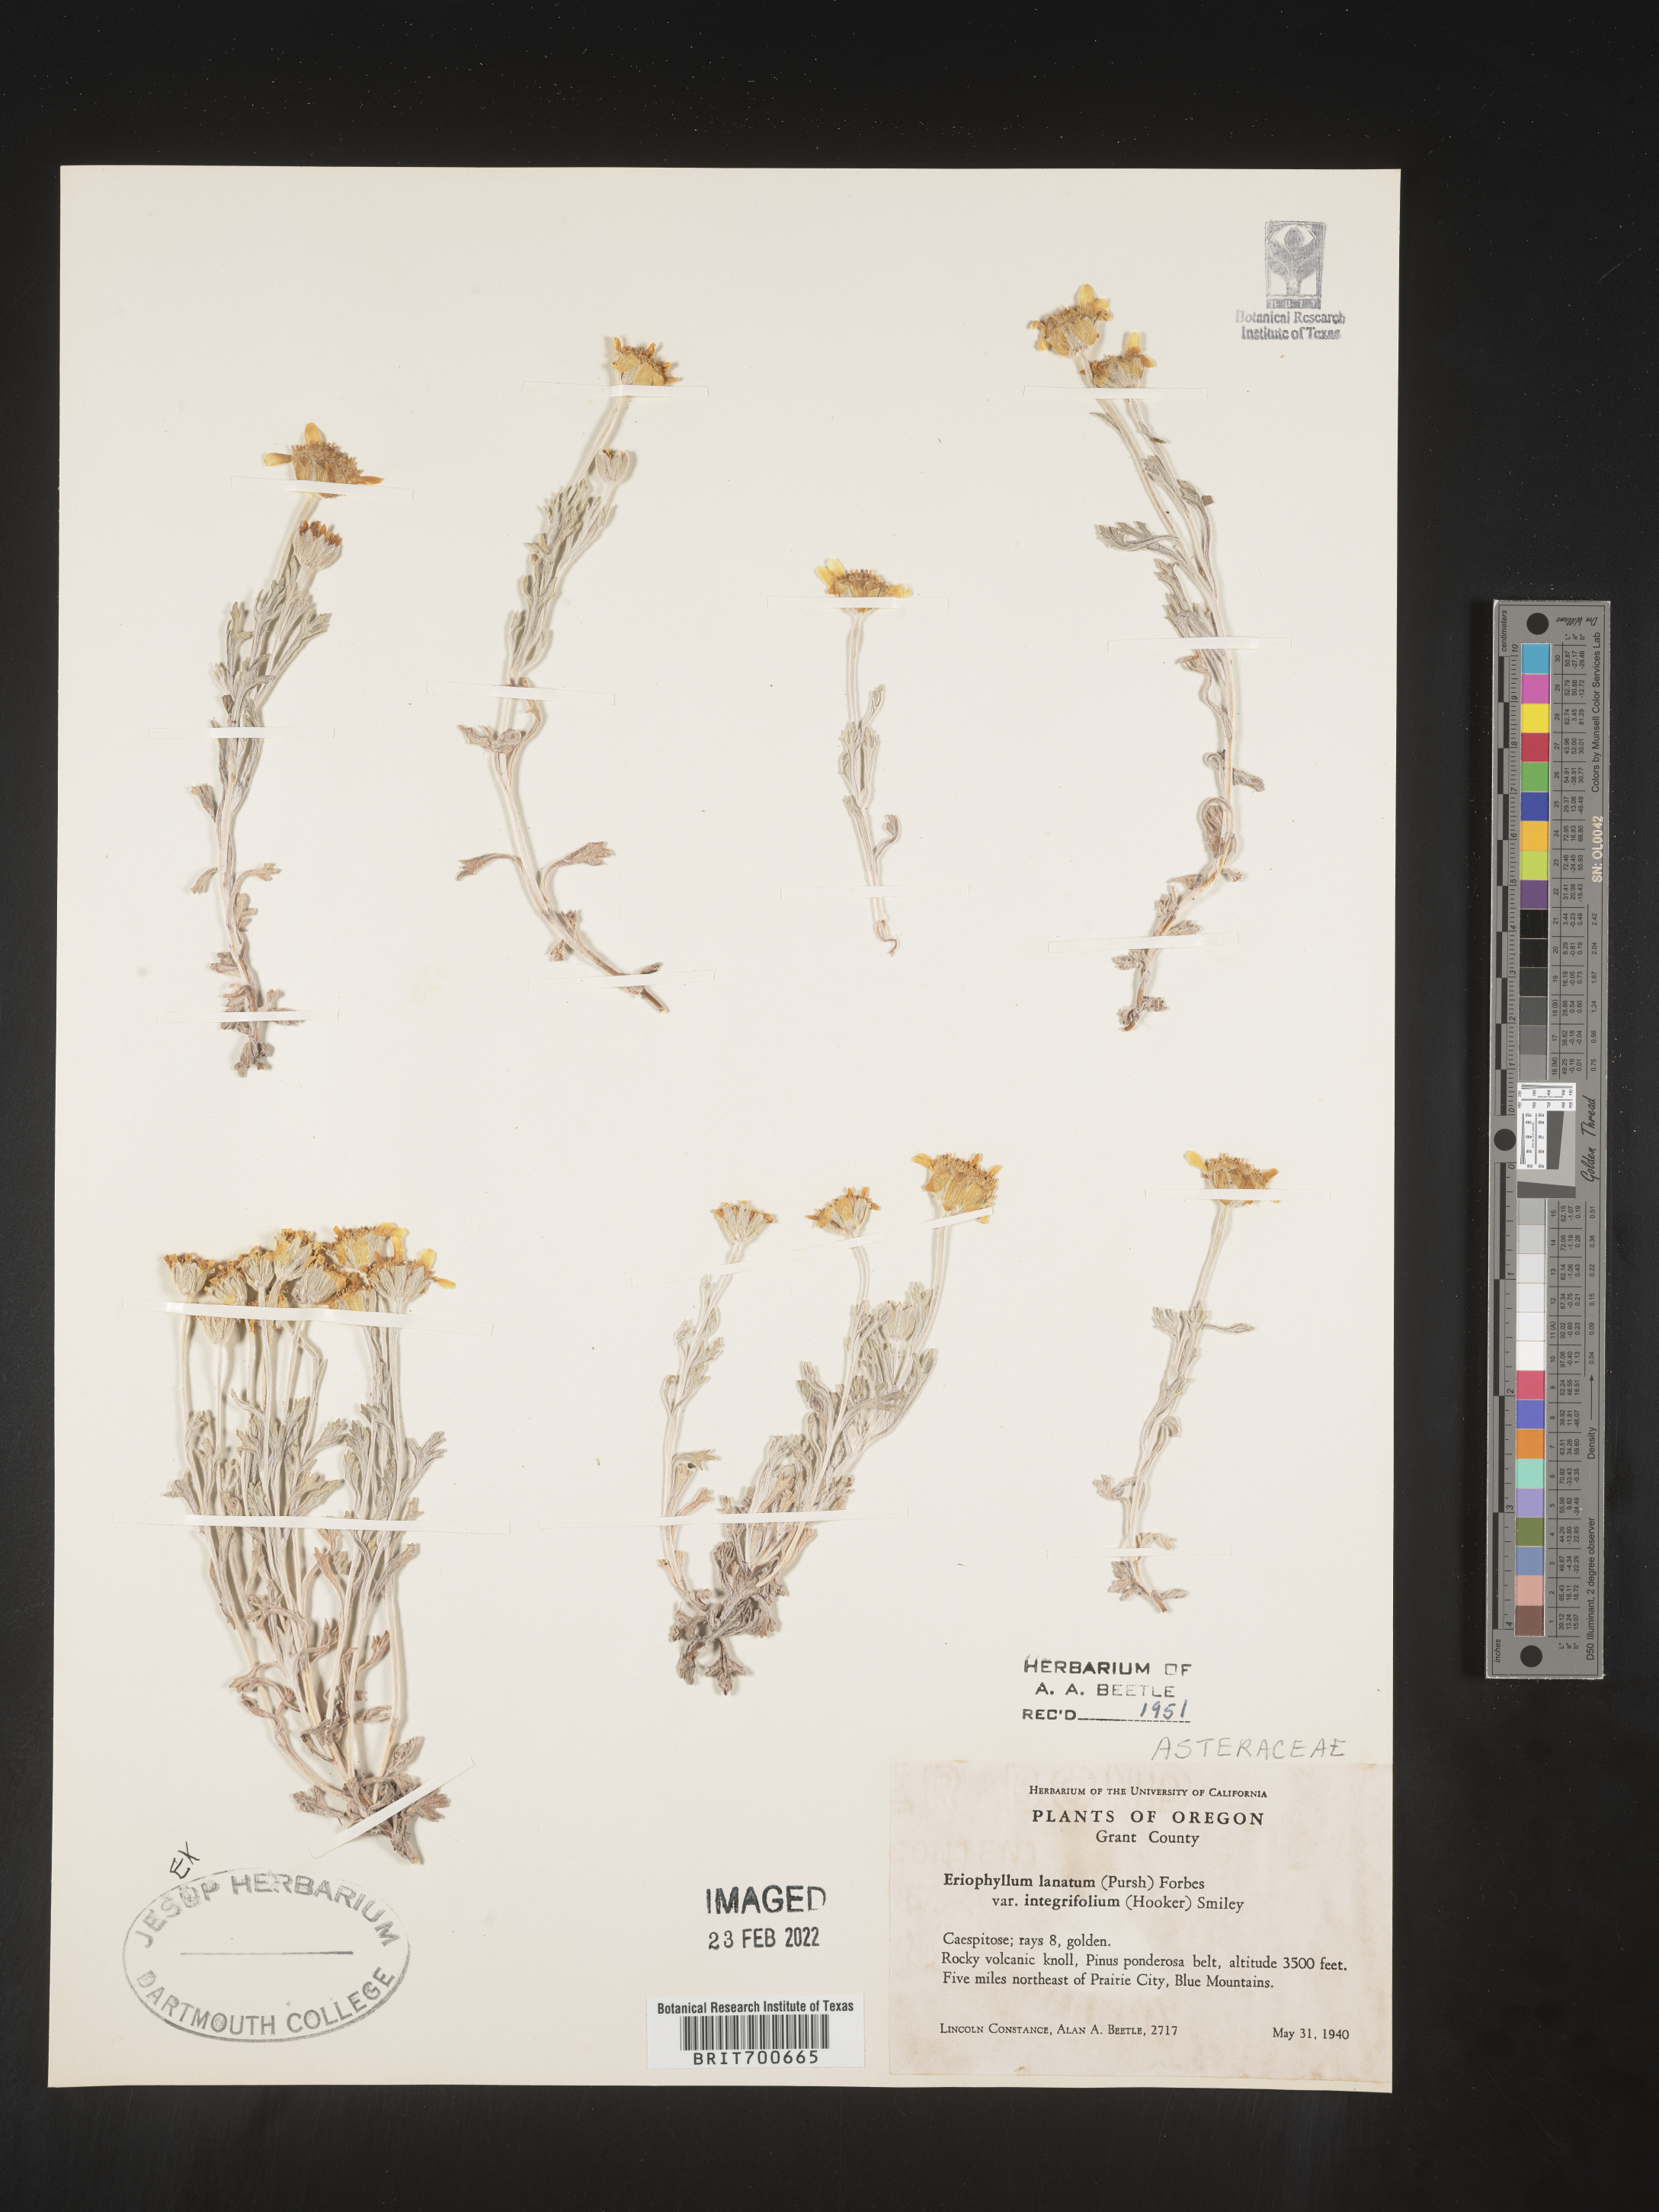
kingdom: Plantae
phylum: Tracheophyta
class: Magnoliopsida
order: Asterales
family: Asteraceae
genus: Eriophyllum
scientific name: Eriophyllum lanatum
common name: Common woolly-sunflower
